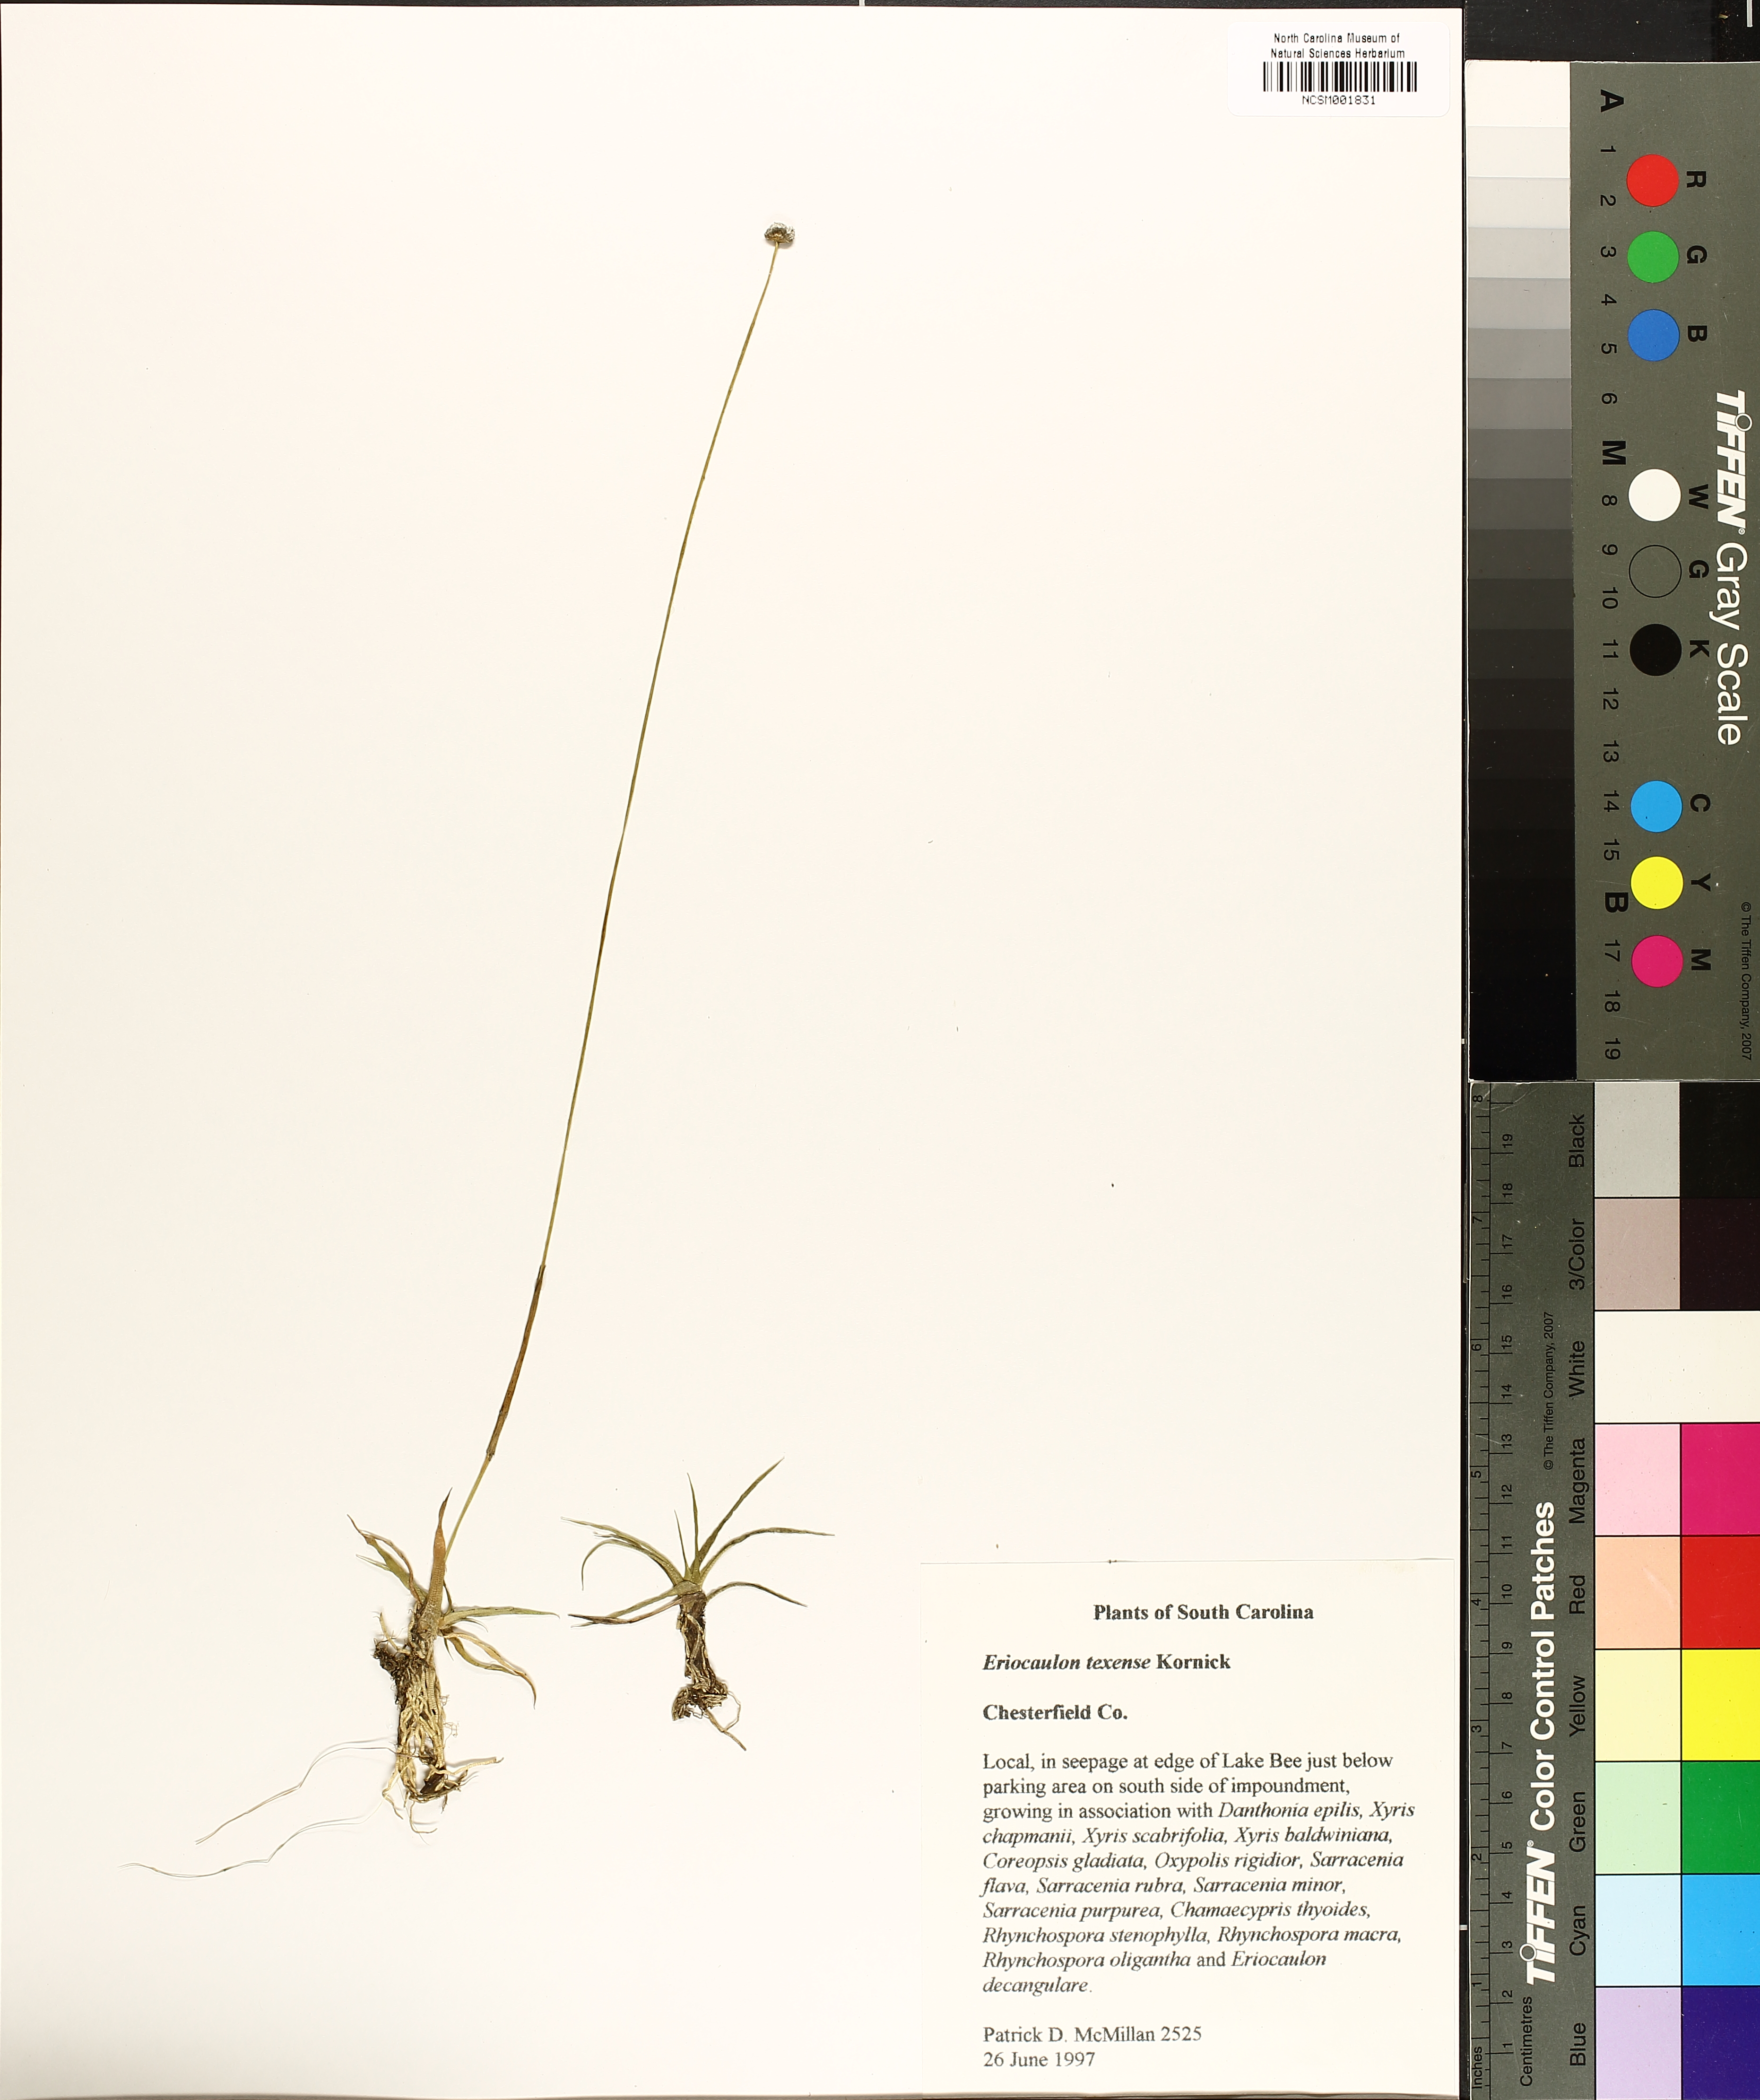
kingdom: Plantae
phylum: Tracheophyta
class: Liliopsida
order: Poales
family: Eriocaulaceae
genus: Eriocaulon
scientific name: Eriocaulon texense
